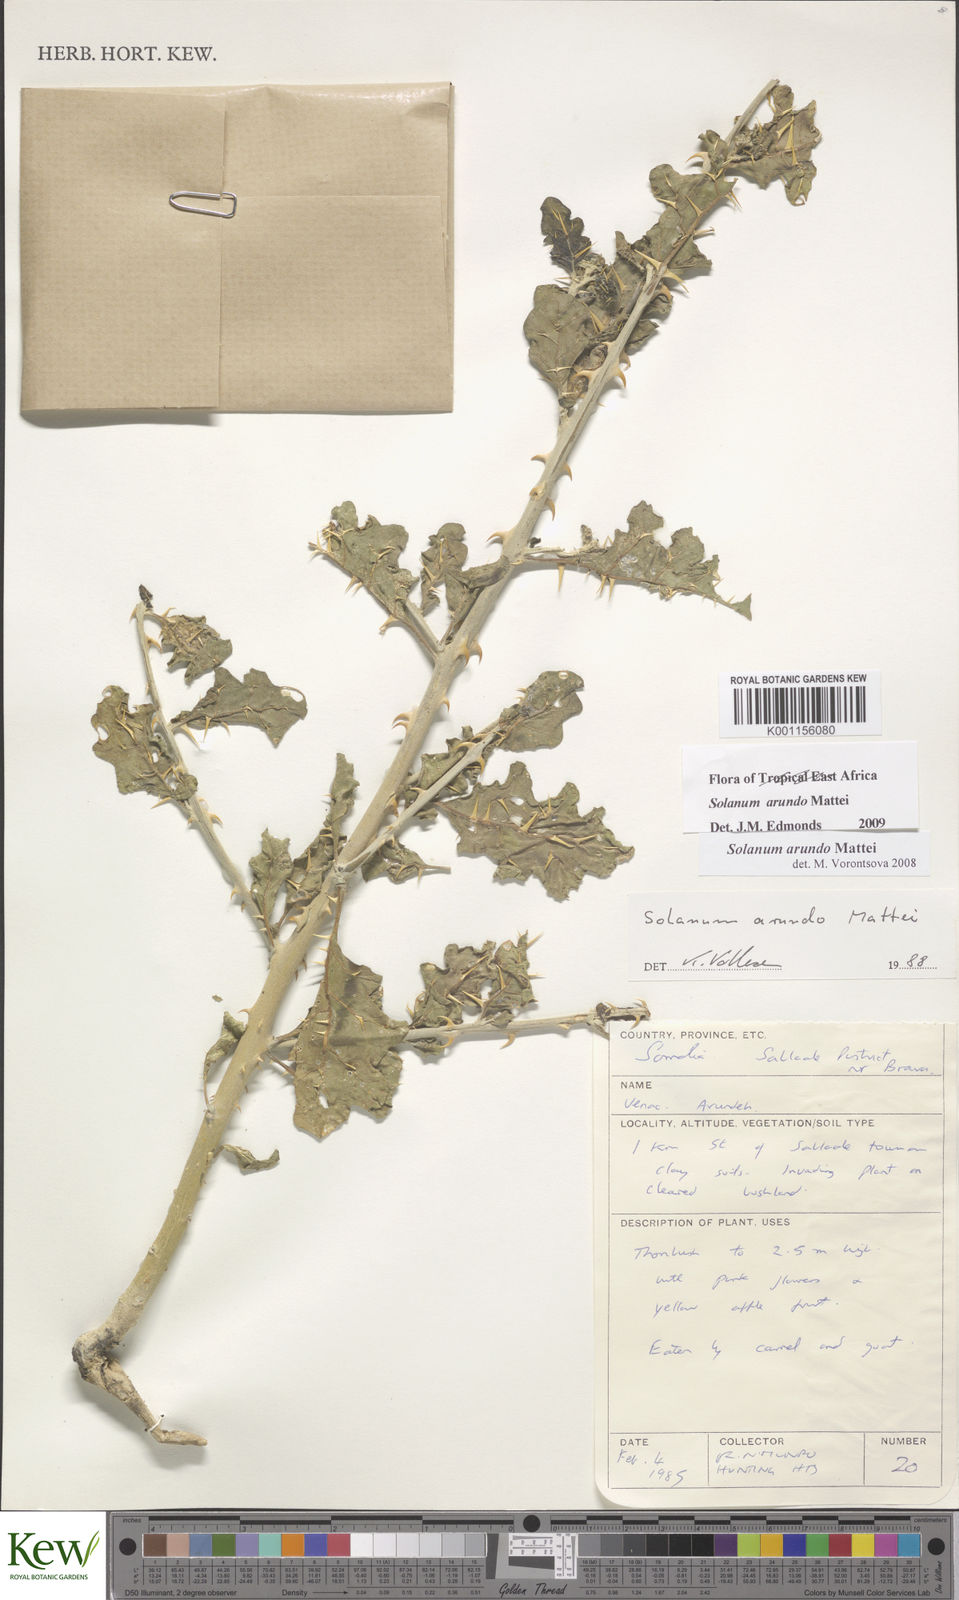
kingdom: Plantae
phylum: Tracheophyta
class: Magnoliopsida
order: Solanales
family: Solanaceae
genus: Solanum
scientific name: Solanum arundo
